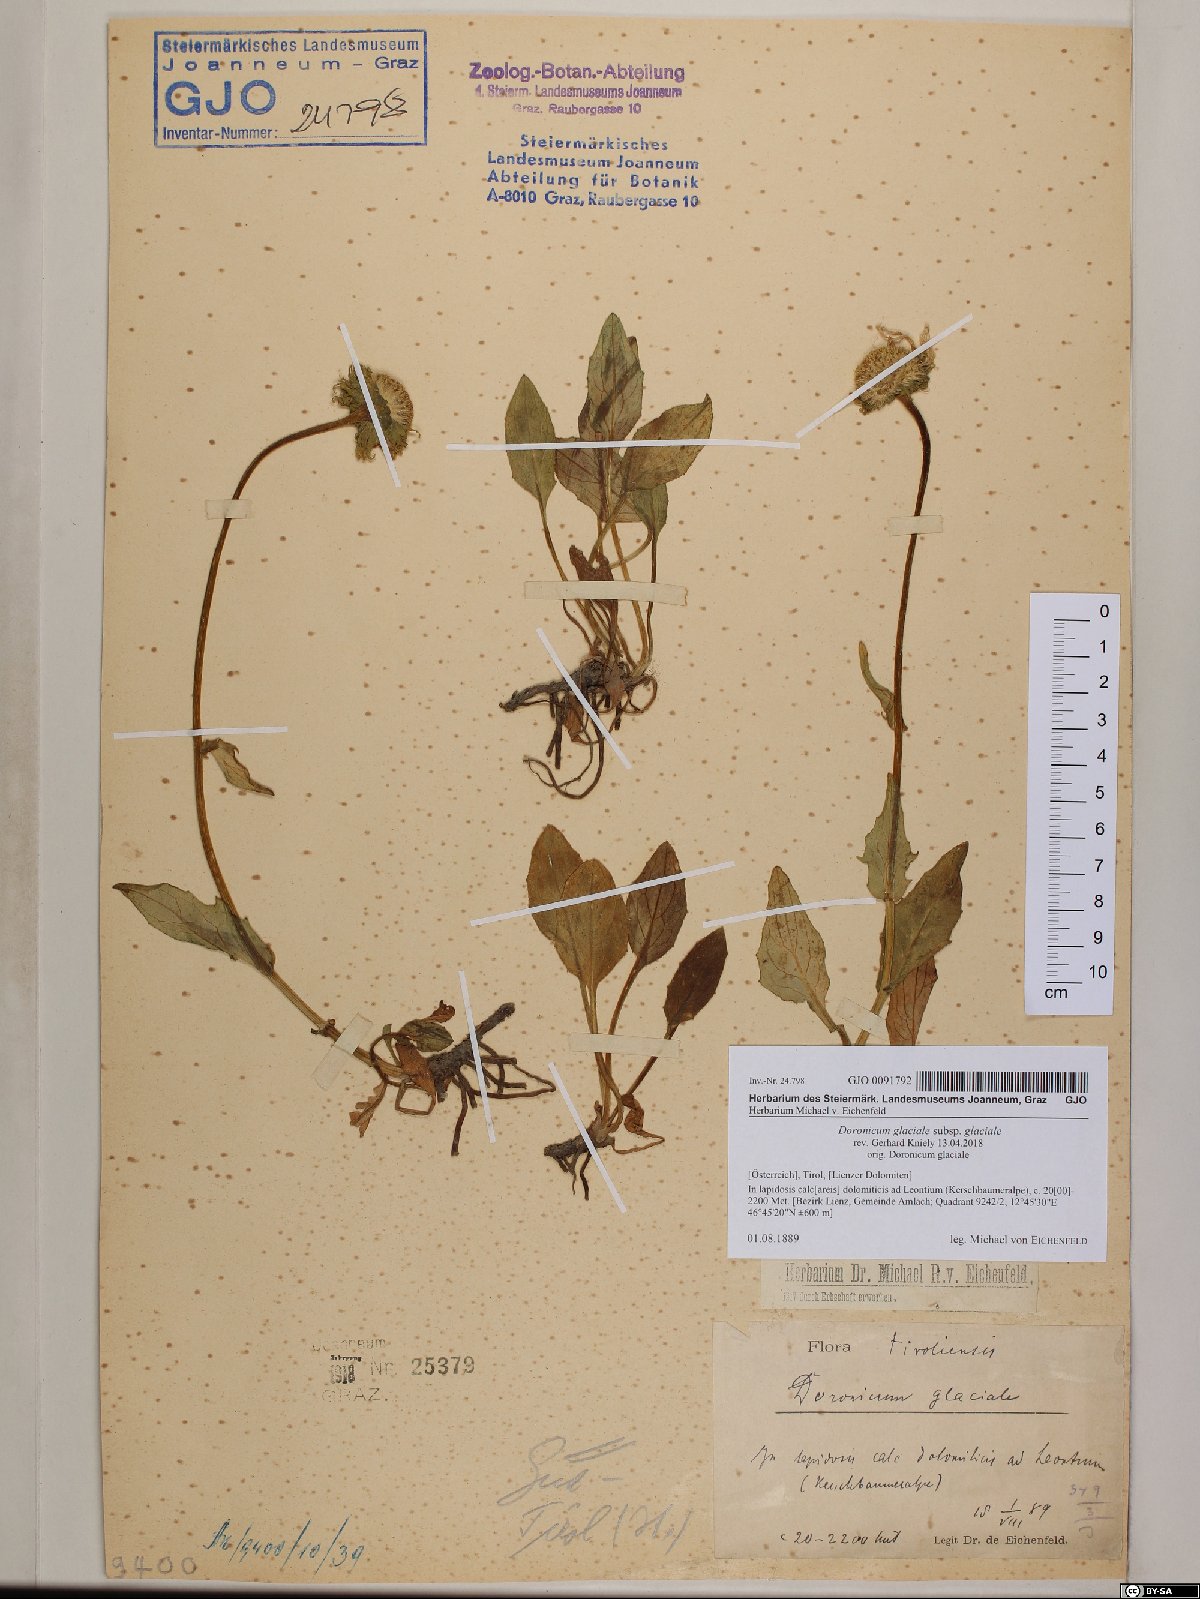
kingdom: Plantae
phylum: Tracheophyta
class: Magnoliopsida
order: Asterales
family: Asteraceae
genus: Doronicum
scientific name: Doronicum glaciale
